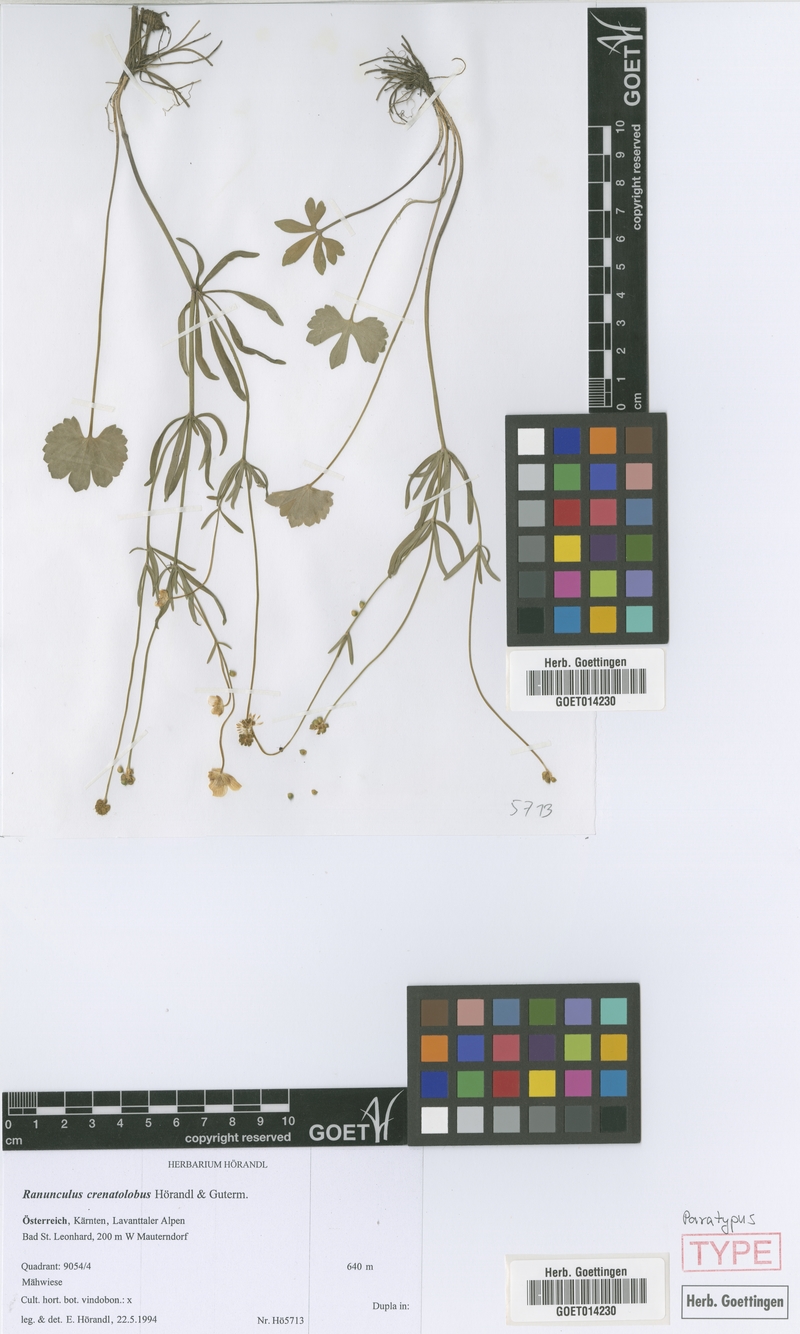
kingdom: Plantae
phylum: Tracheophyta
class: Magnoliopsida
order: Ranunculales
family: Ranunculaceae
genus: Ranunculus
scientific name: Ranunculus crenatolobus
